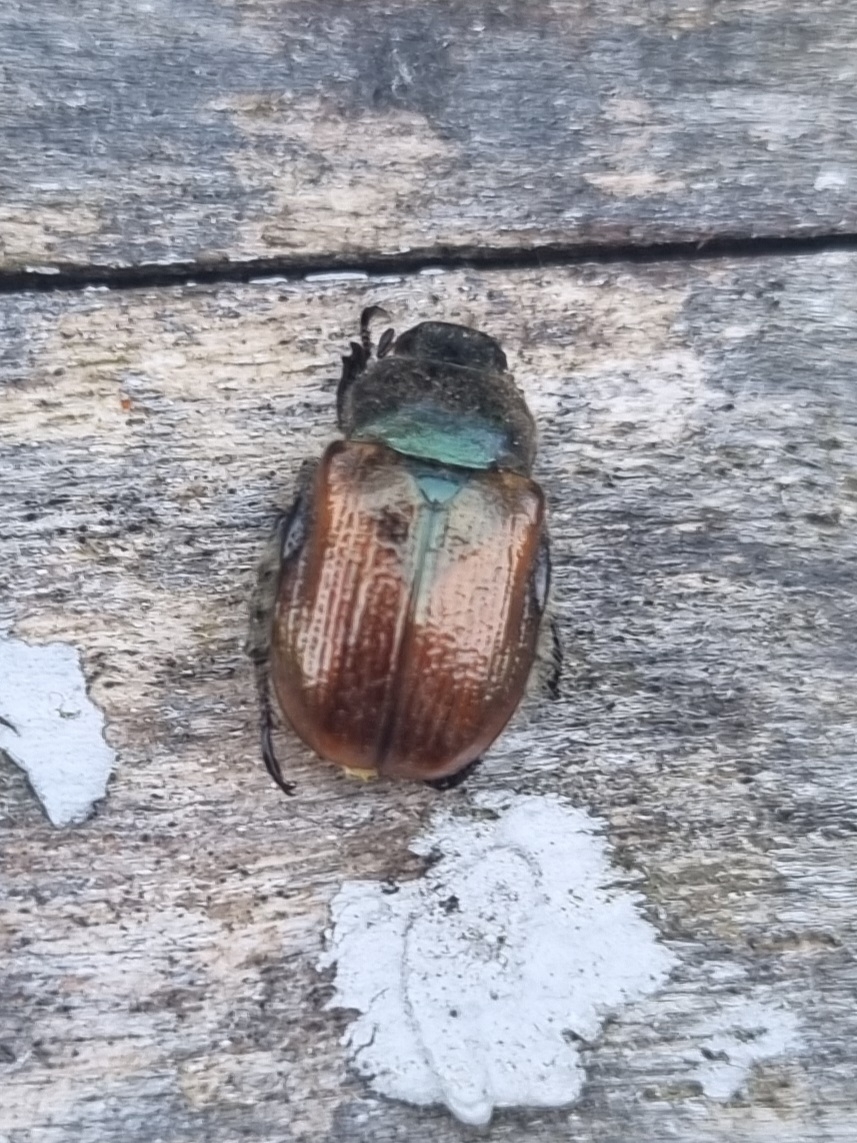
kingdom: Animalia
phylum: Arthropoda
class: Insecta
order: Coleoptera
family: Scarabaeidae
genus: Phyllopertha
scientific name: Phyllopertha horticola
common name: Gåsebille
